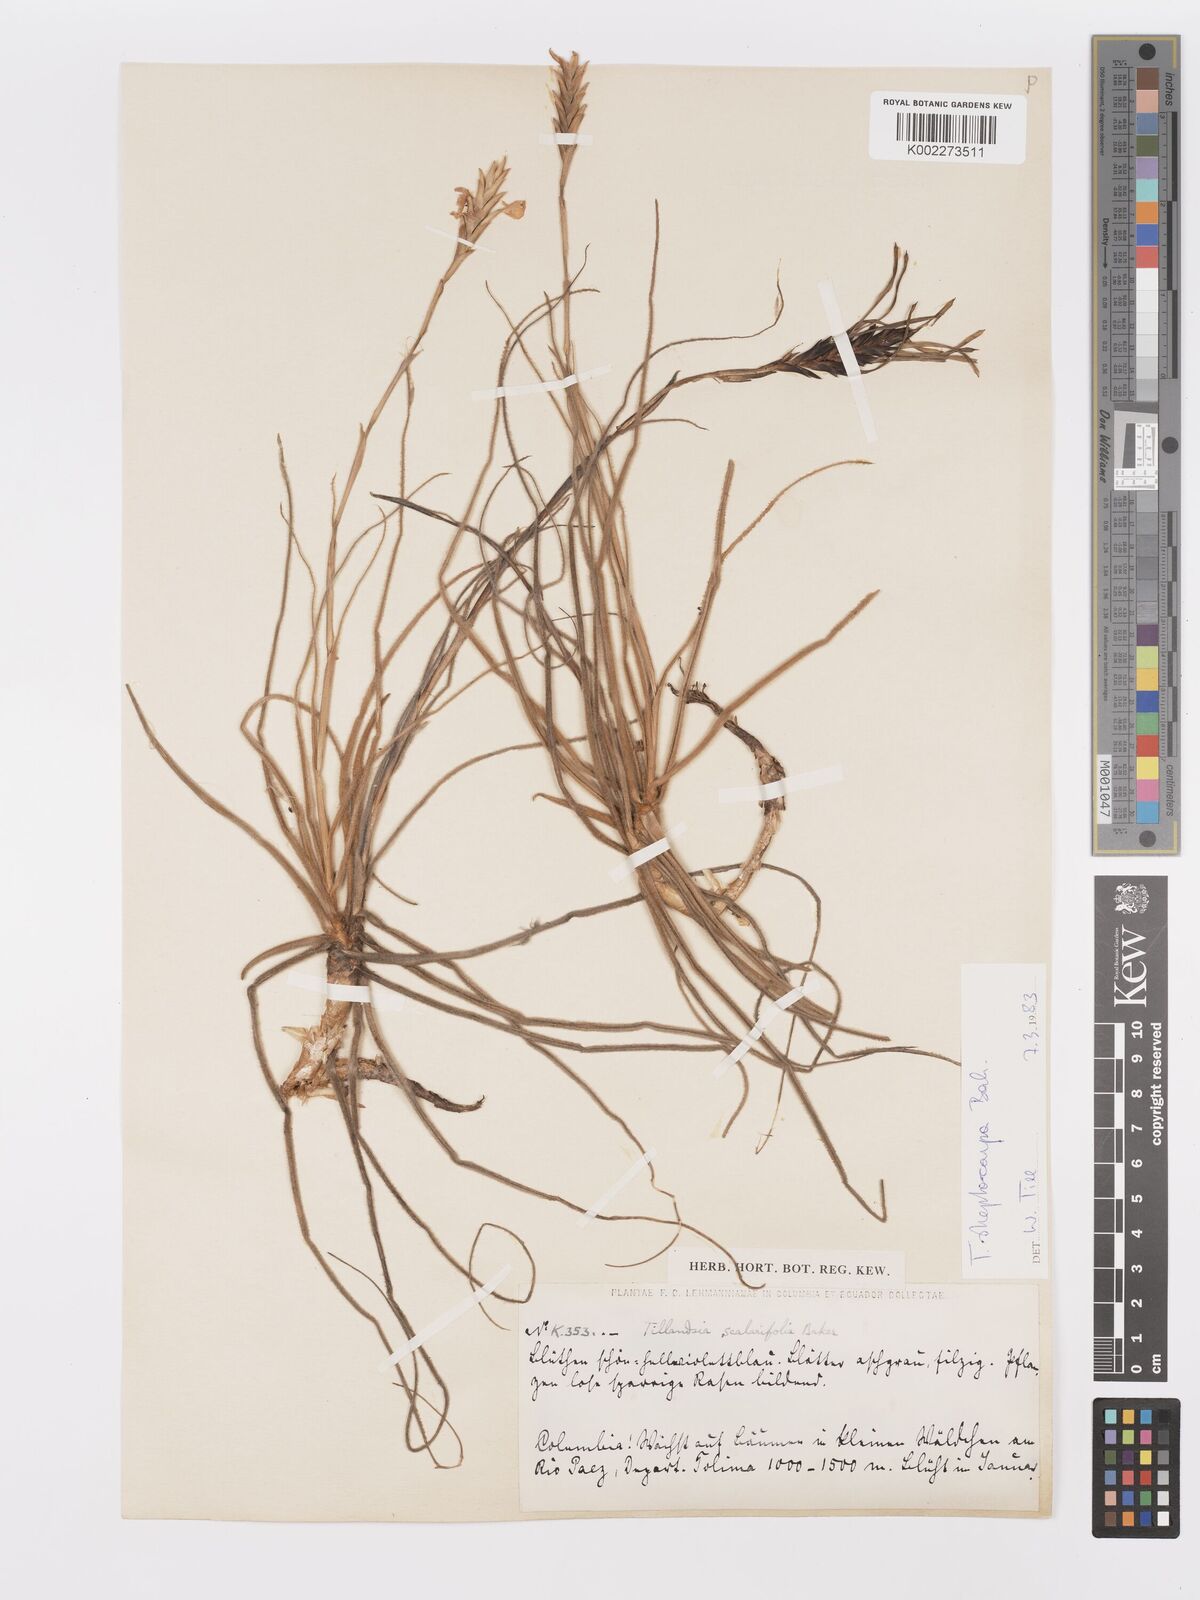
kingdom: Plantae
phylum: Tracheophyta
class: Liliopsida
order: Poales
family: Bromeliaceae
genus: Tillandsia
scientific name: Tillandsia streptocarpa
